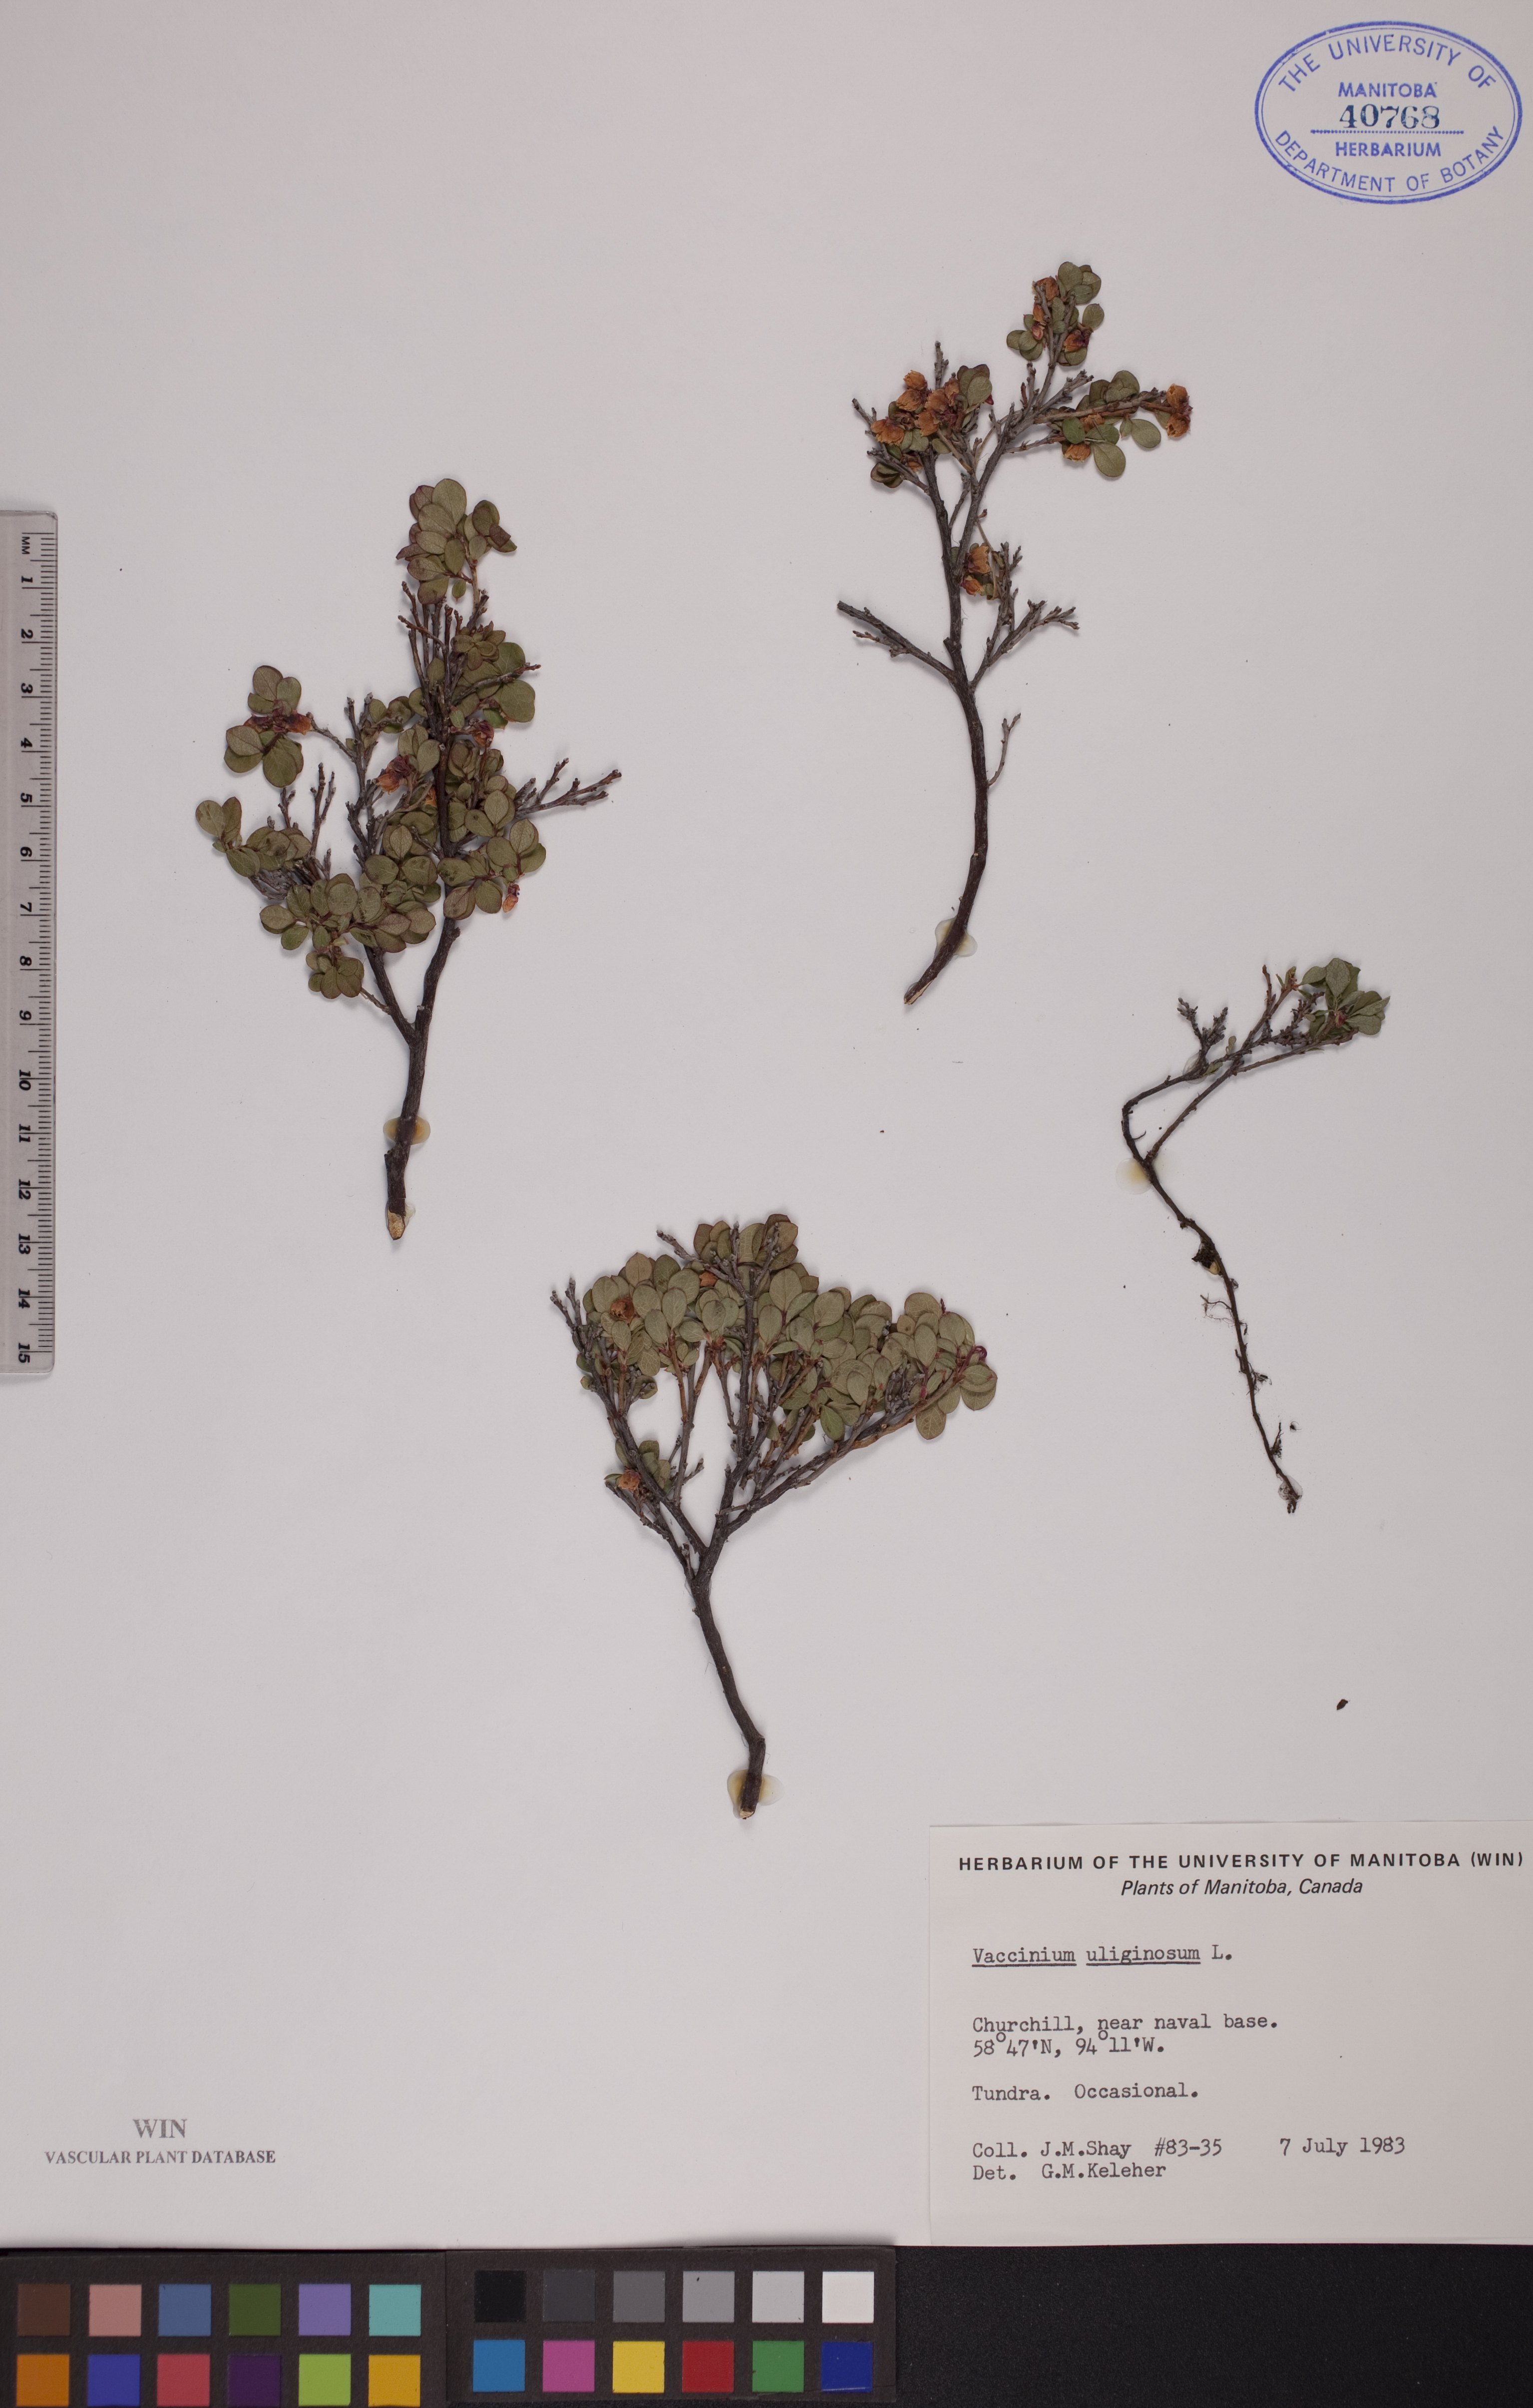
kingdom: Plantae
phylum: Tracheophyta
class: Magnoliopsida
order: Ericales
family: Ericaceae
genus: Vaccinium
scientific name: Vaccinium uliginosum
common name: Bog bilberry
